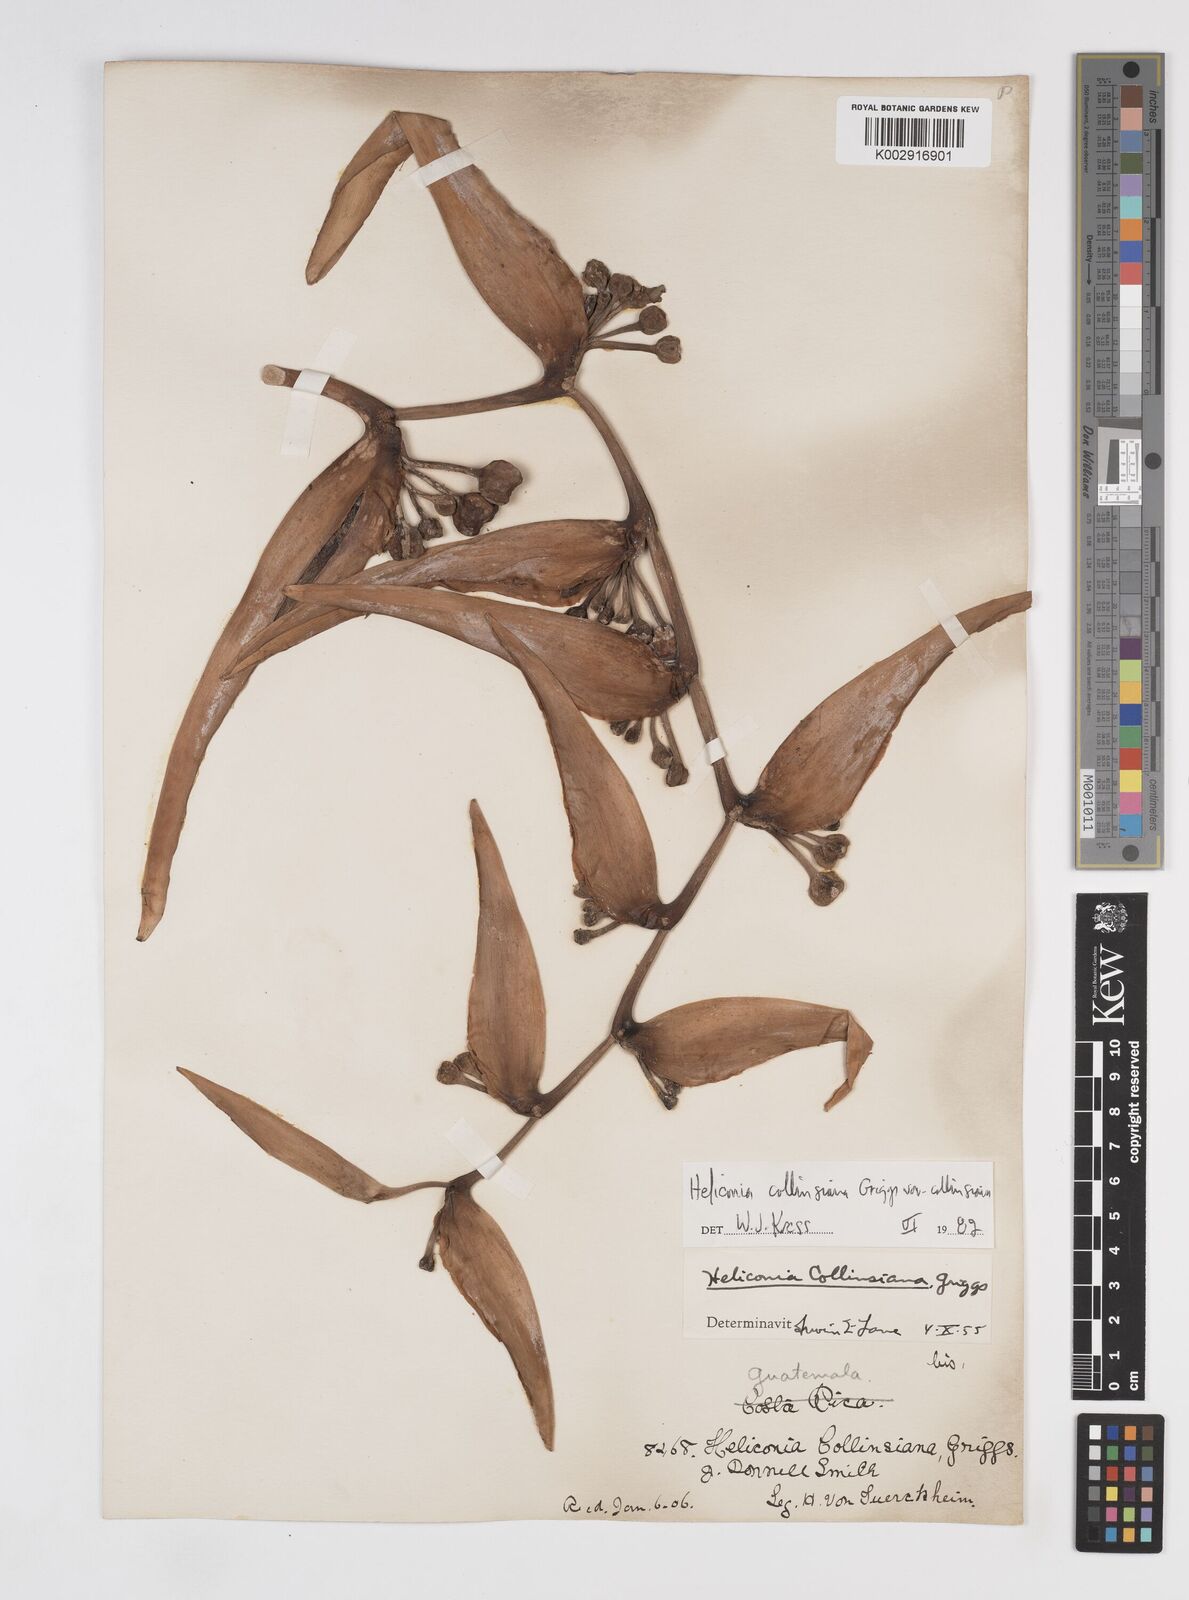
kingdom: Plantae
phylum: Tracheophyta
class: Liliopsida
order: Zingiberales
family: Heliconiaceae
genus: Heliconia
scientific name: Heliconia collinsiana
